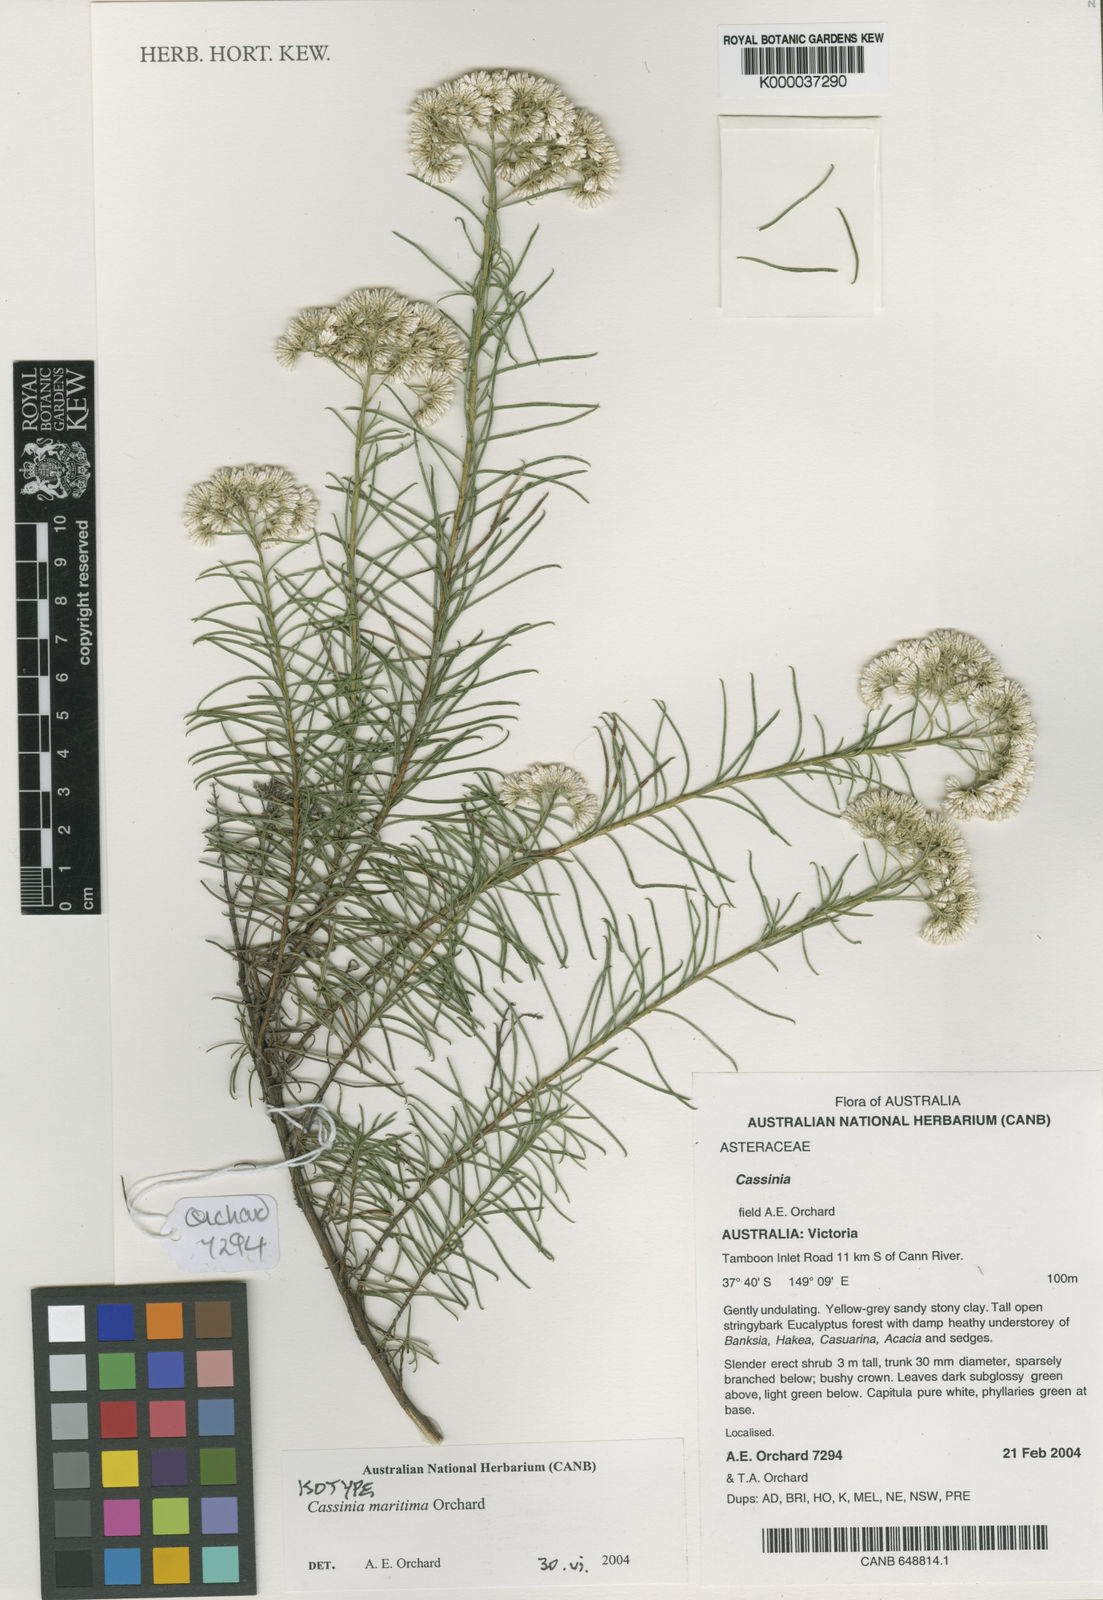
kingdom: Plantae
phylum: Tracheophyta
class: Magnoliopsida
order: Asterales
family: Asteraceae
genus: Cassinia
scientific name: Cassinia maritima
